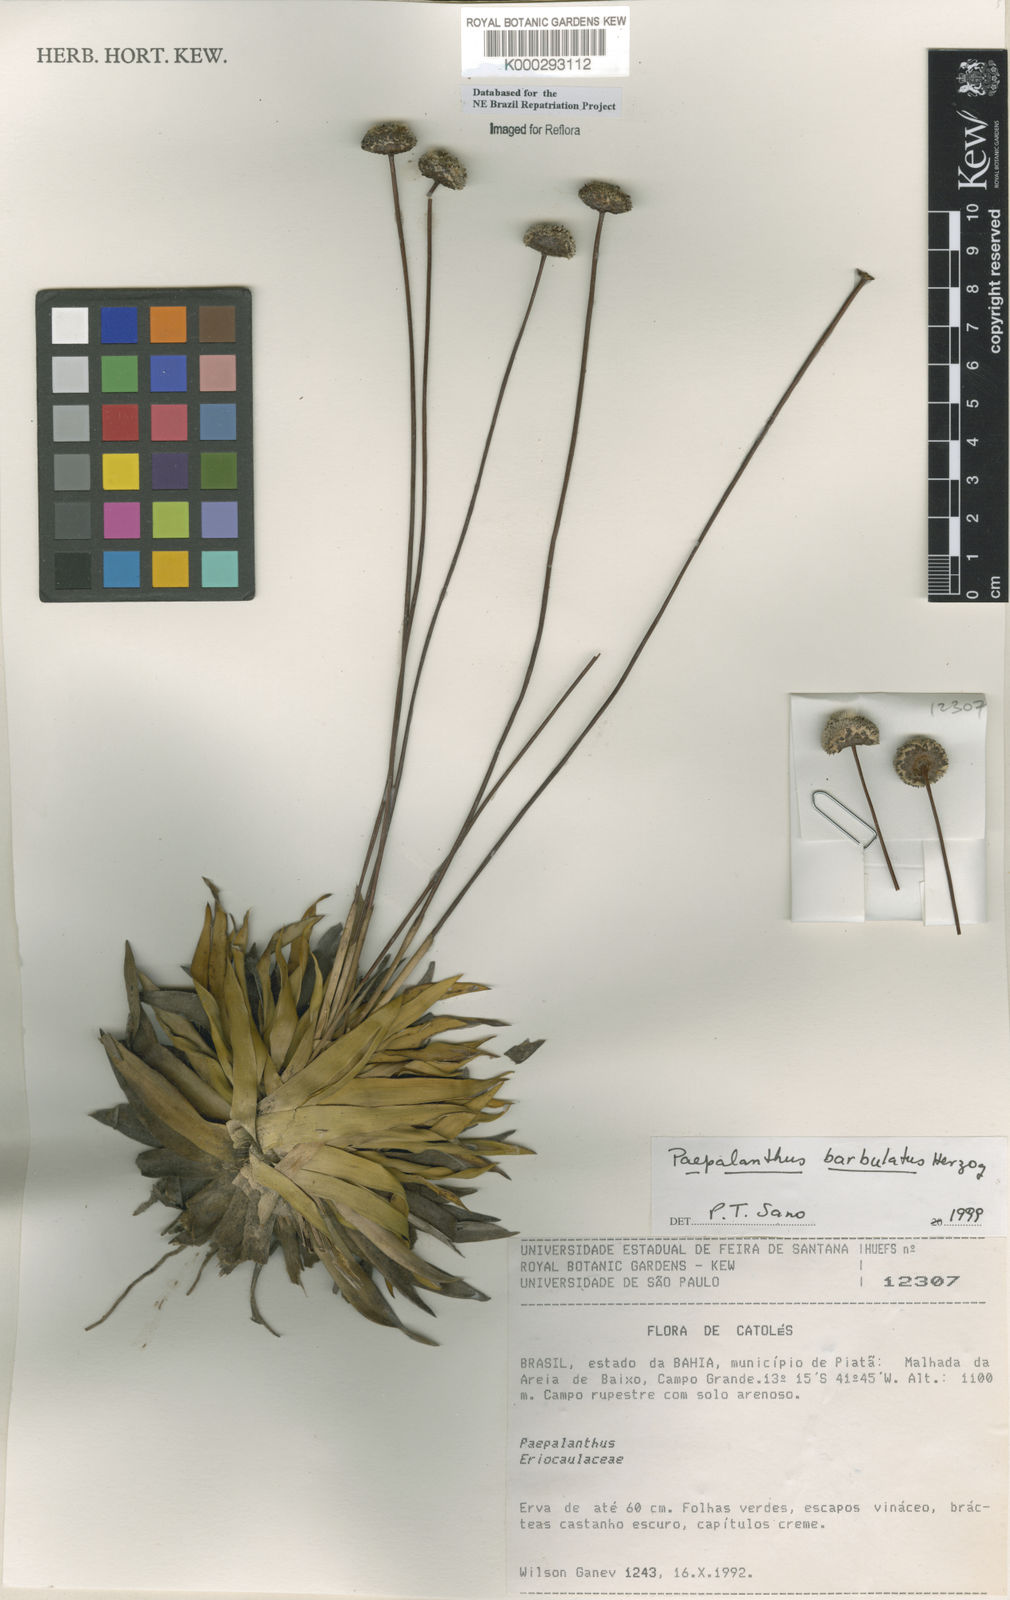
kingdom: Plantae
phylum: Tracheophyta
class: Liliopsida
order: Poales
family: Eriocaulaceae
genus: Paepalanthus
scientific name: Paepalanthus barbulatus
